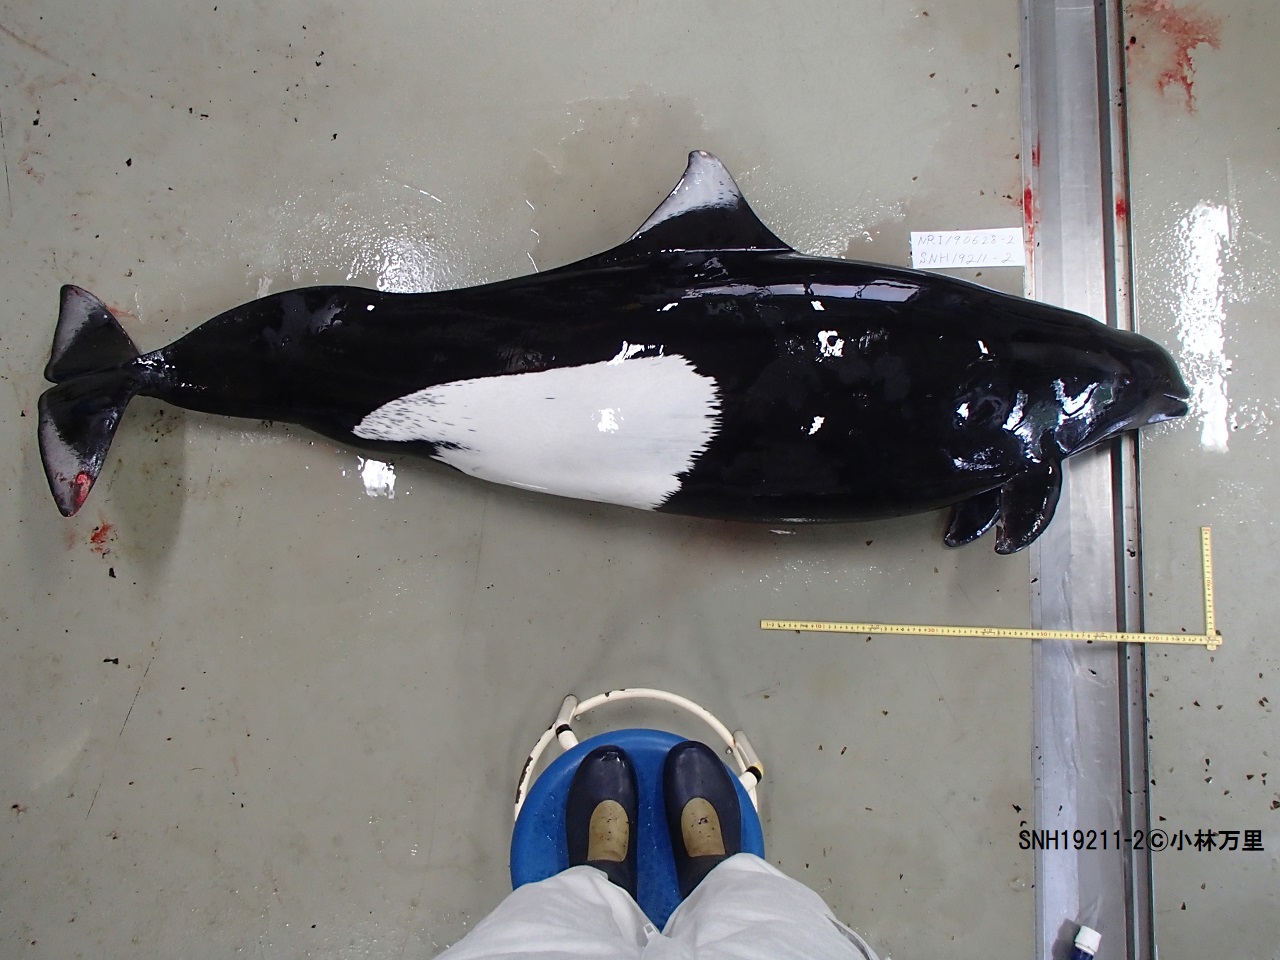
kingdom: Animalia
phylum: Chordata
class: Mammalia
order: Cetacea
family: Phocoenidae
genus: Phocoenoides
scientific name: Phocoenoides dalli
